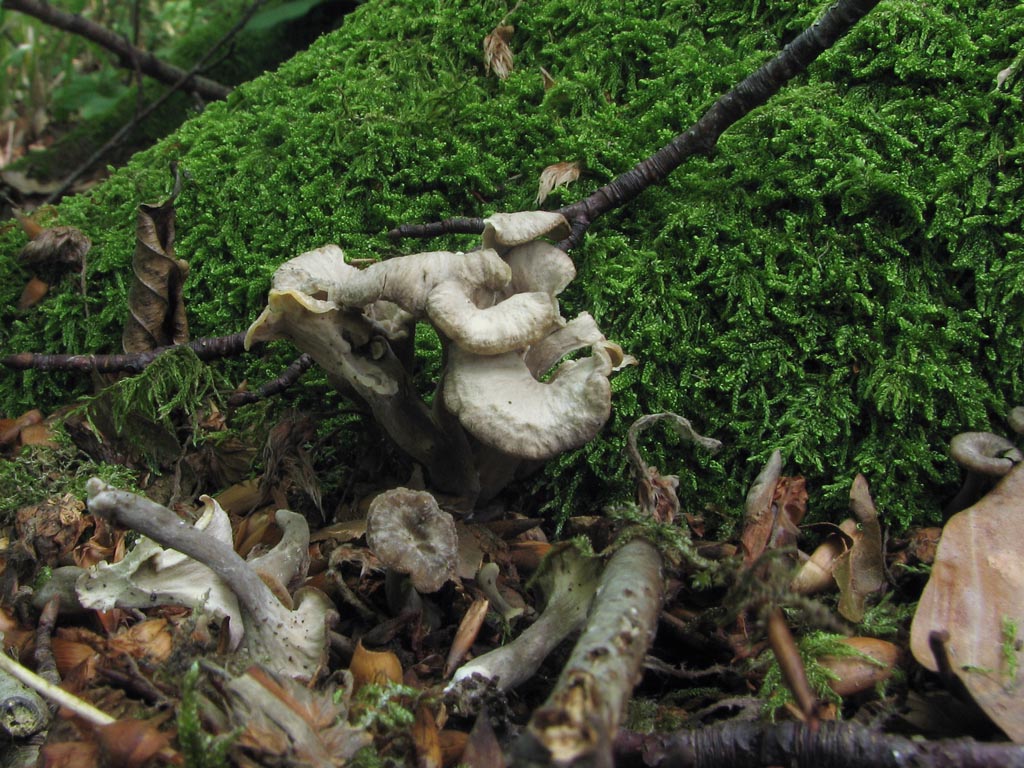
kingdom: Fungi
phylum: Basidiomycota
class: Agaricomycetes
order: Cantharellales
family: Hydnaceae
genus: Craterellus
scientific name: Craterellus undulatus
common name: liden kantarel
